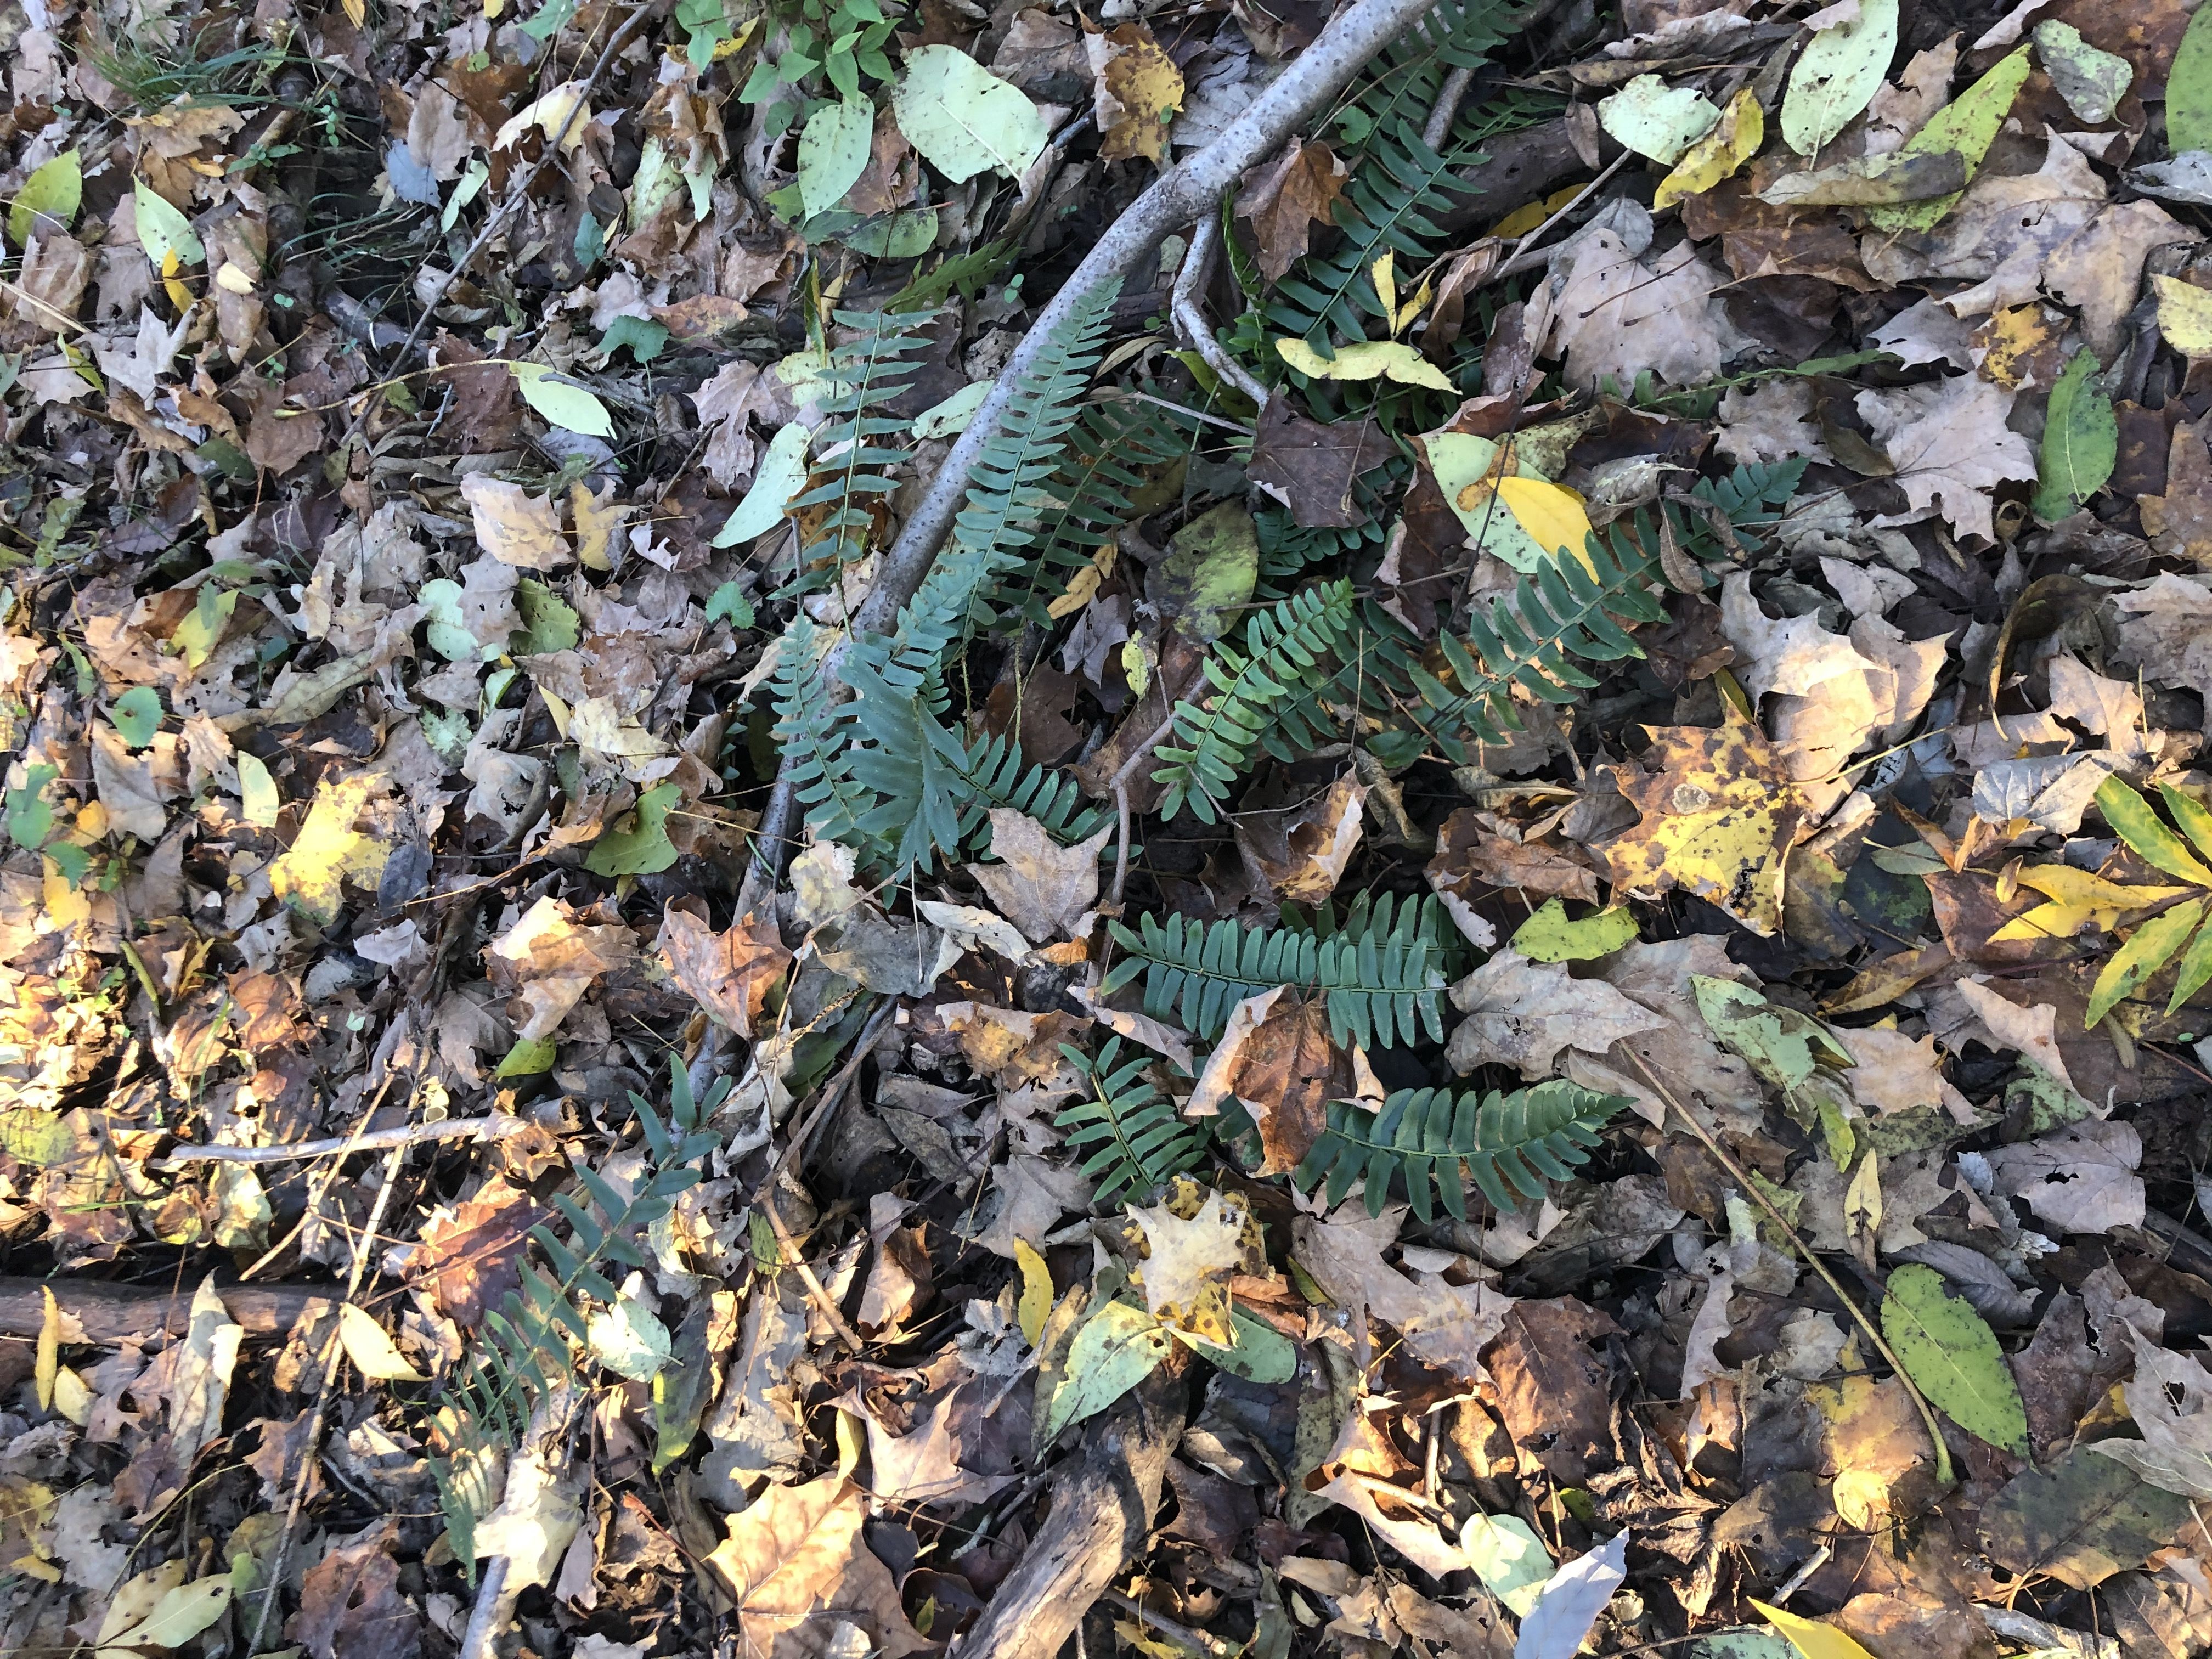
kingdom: Plantae
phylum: Tracheophyta
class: Polypodiopsida
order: Polypodiales
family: Dryopteridaceae
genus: Polystichum
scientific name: Polystichum acrostichoides
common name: Christmas Fern
